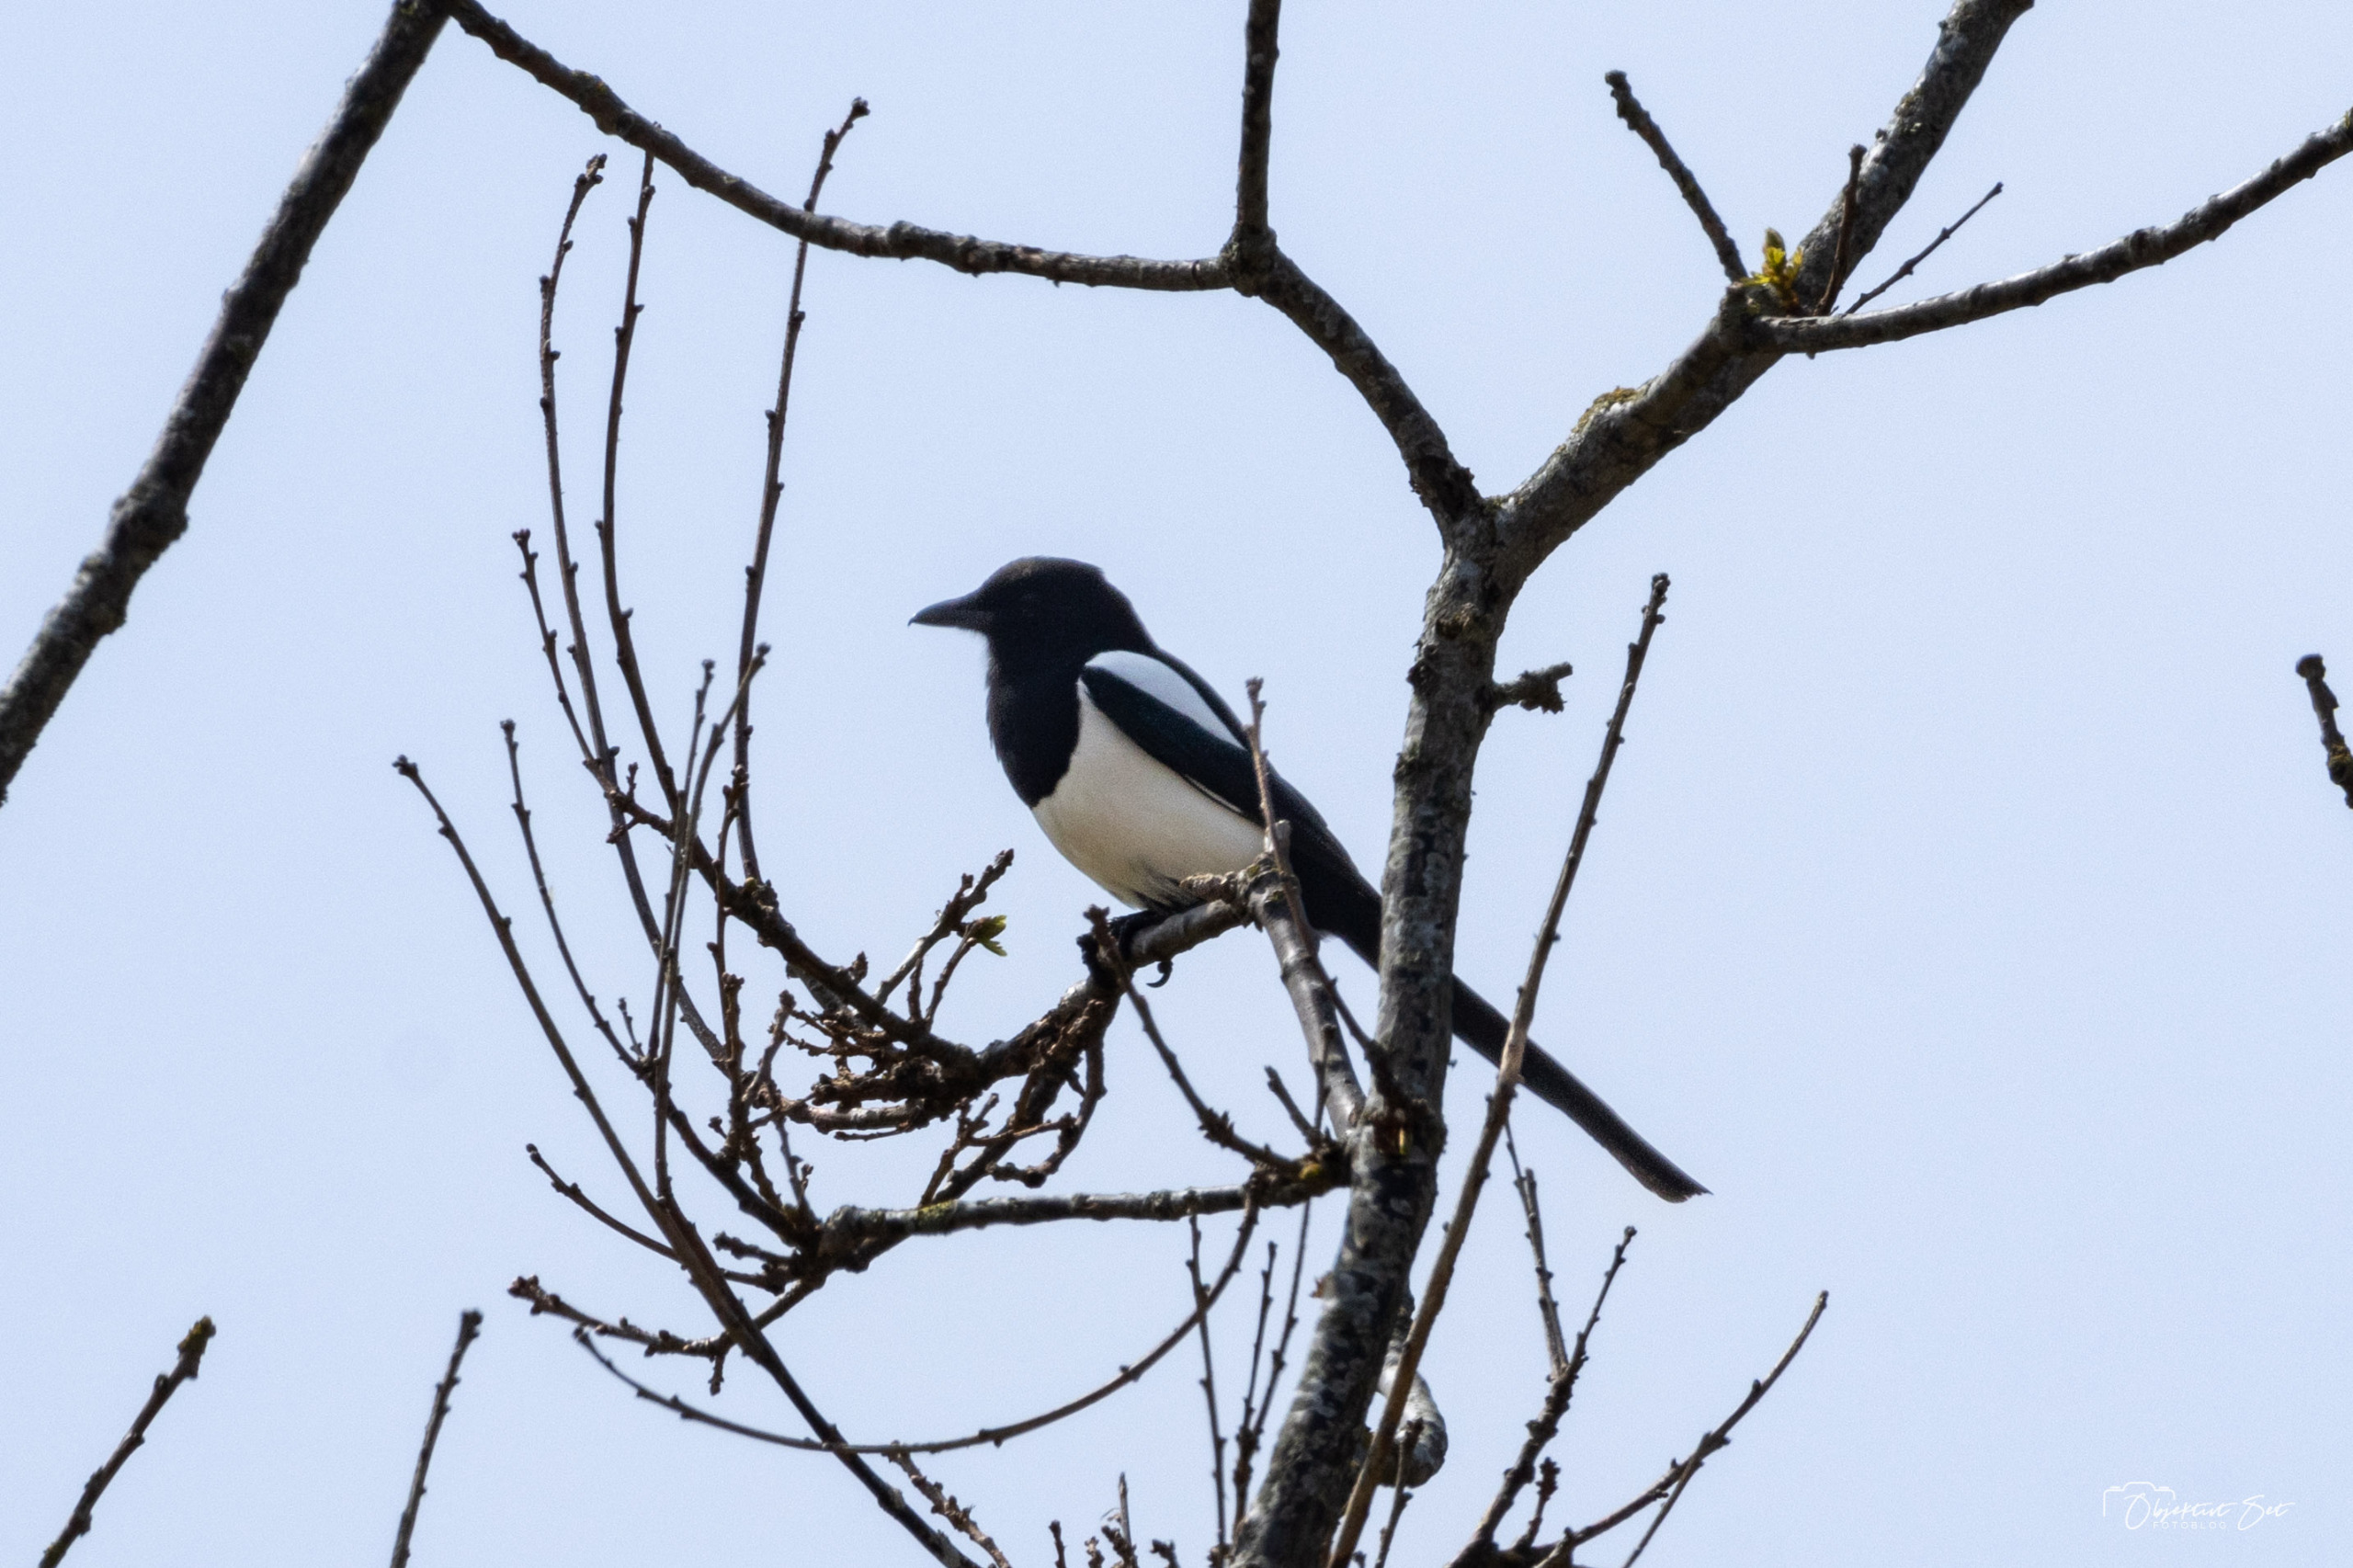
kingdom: Animalia
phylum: Chordata
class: Aves
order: Passeriformes
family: Corvidae
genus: Pica
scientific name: Pica pica
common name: Husskade
